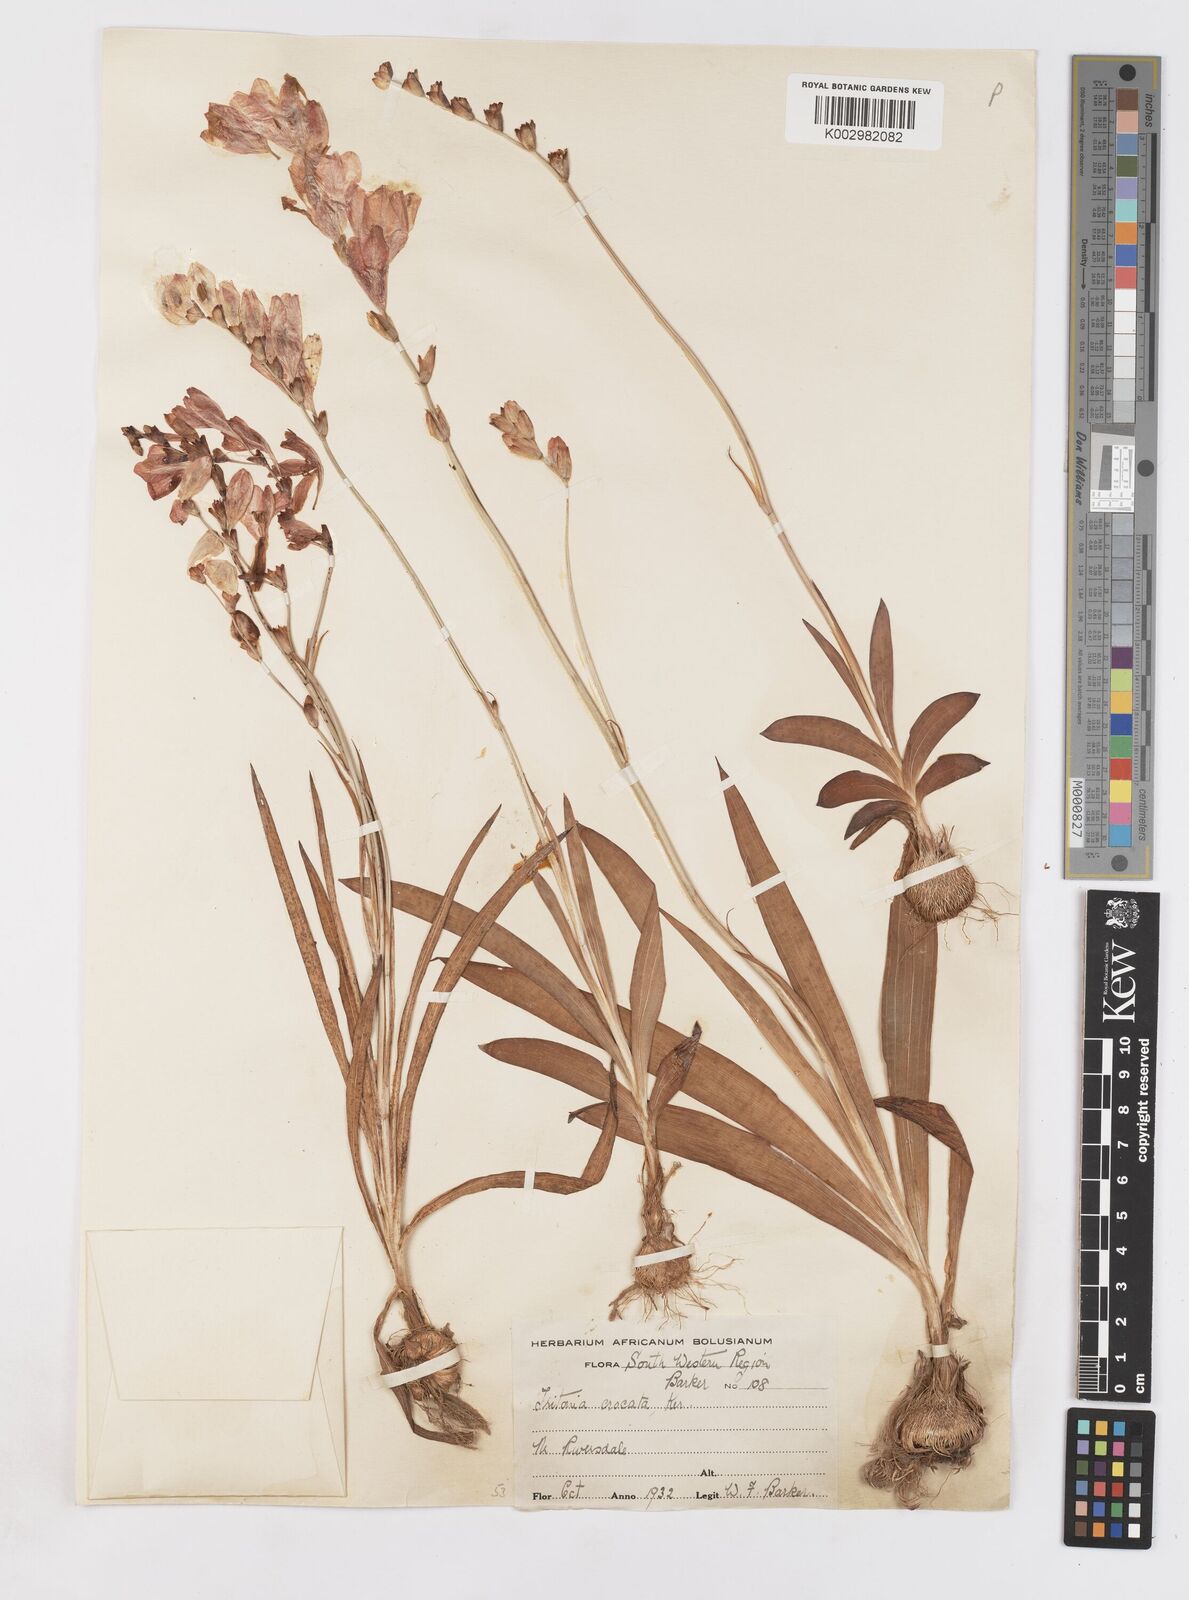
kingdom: Plantae
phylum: Tracheophyta
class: Liliopsida
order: Asparagales
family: Iridaceae
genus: Tritonia
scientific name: Tritonia crocata
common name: Flame-freesia
